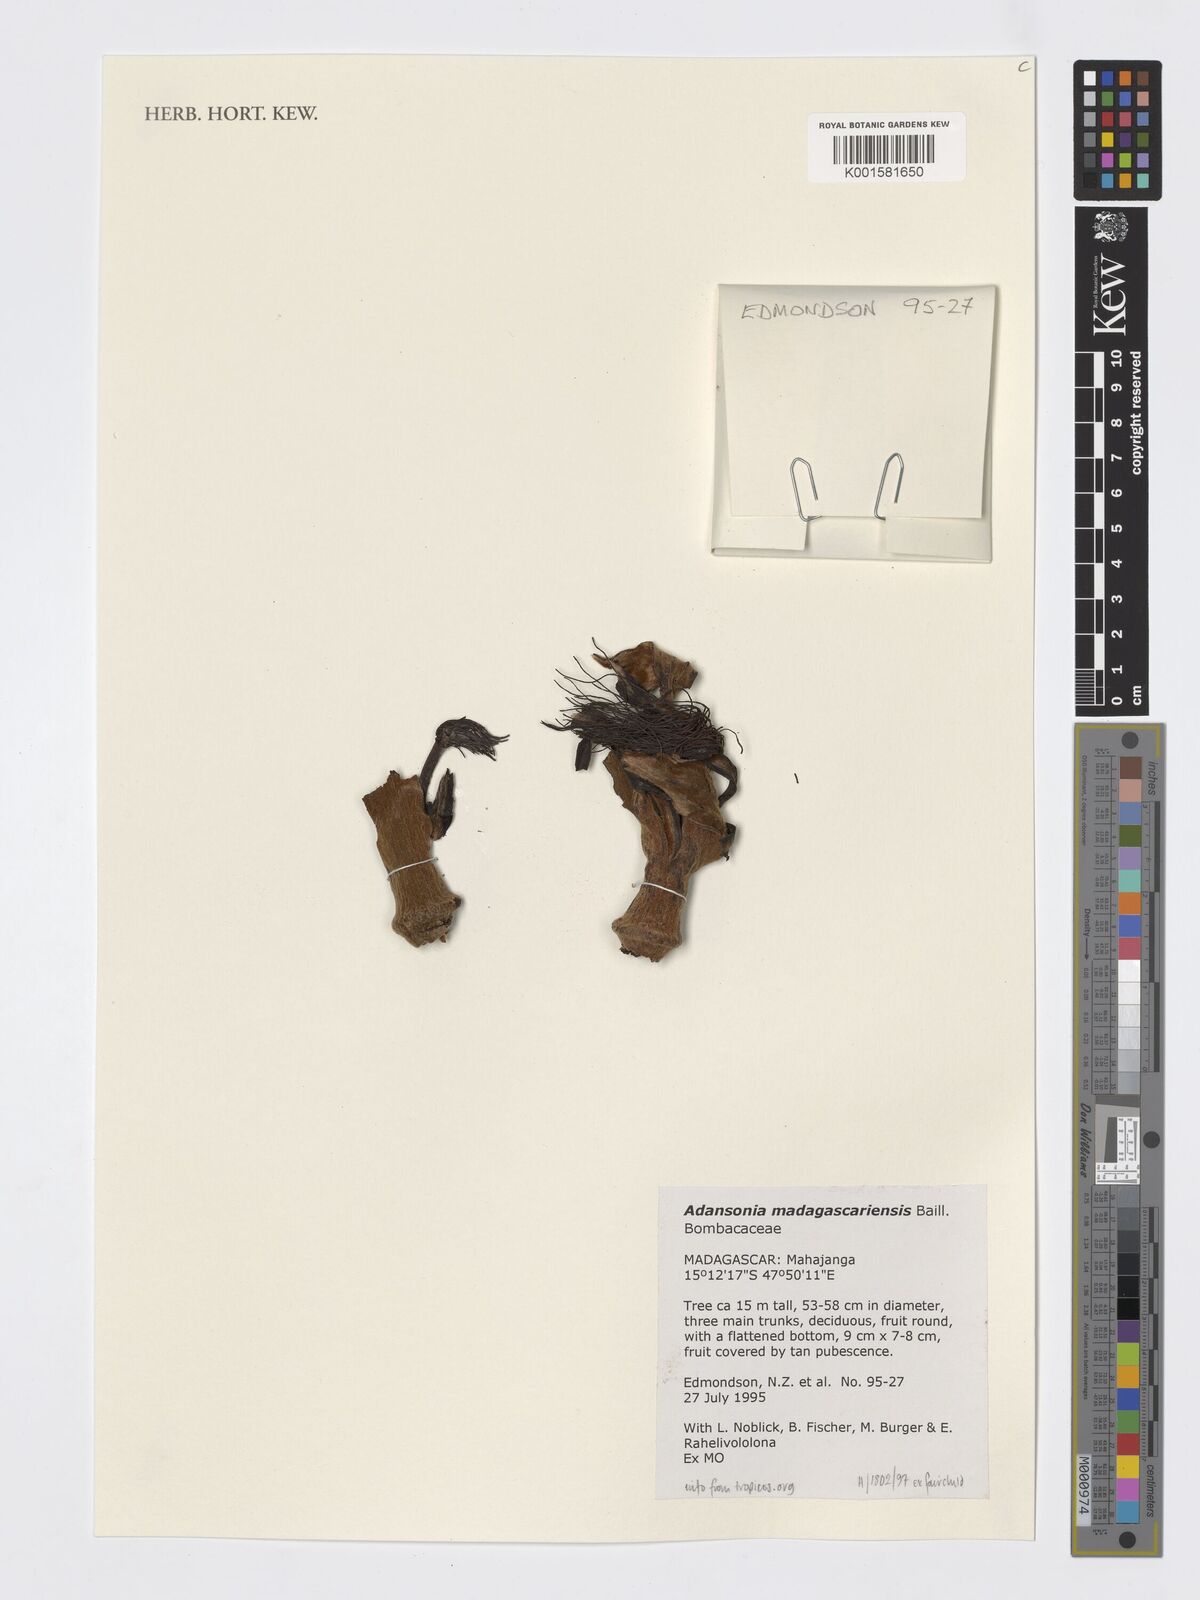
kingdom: Plantae
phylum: Tracheophyta
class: Magnoliopsida
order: Malvales
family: Malvaceae
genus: Adansonia
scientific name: Adansonia madagascariensis
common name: Madagascar baobab
